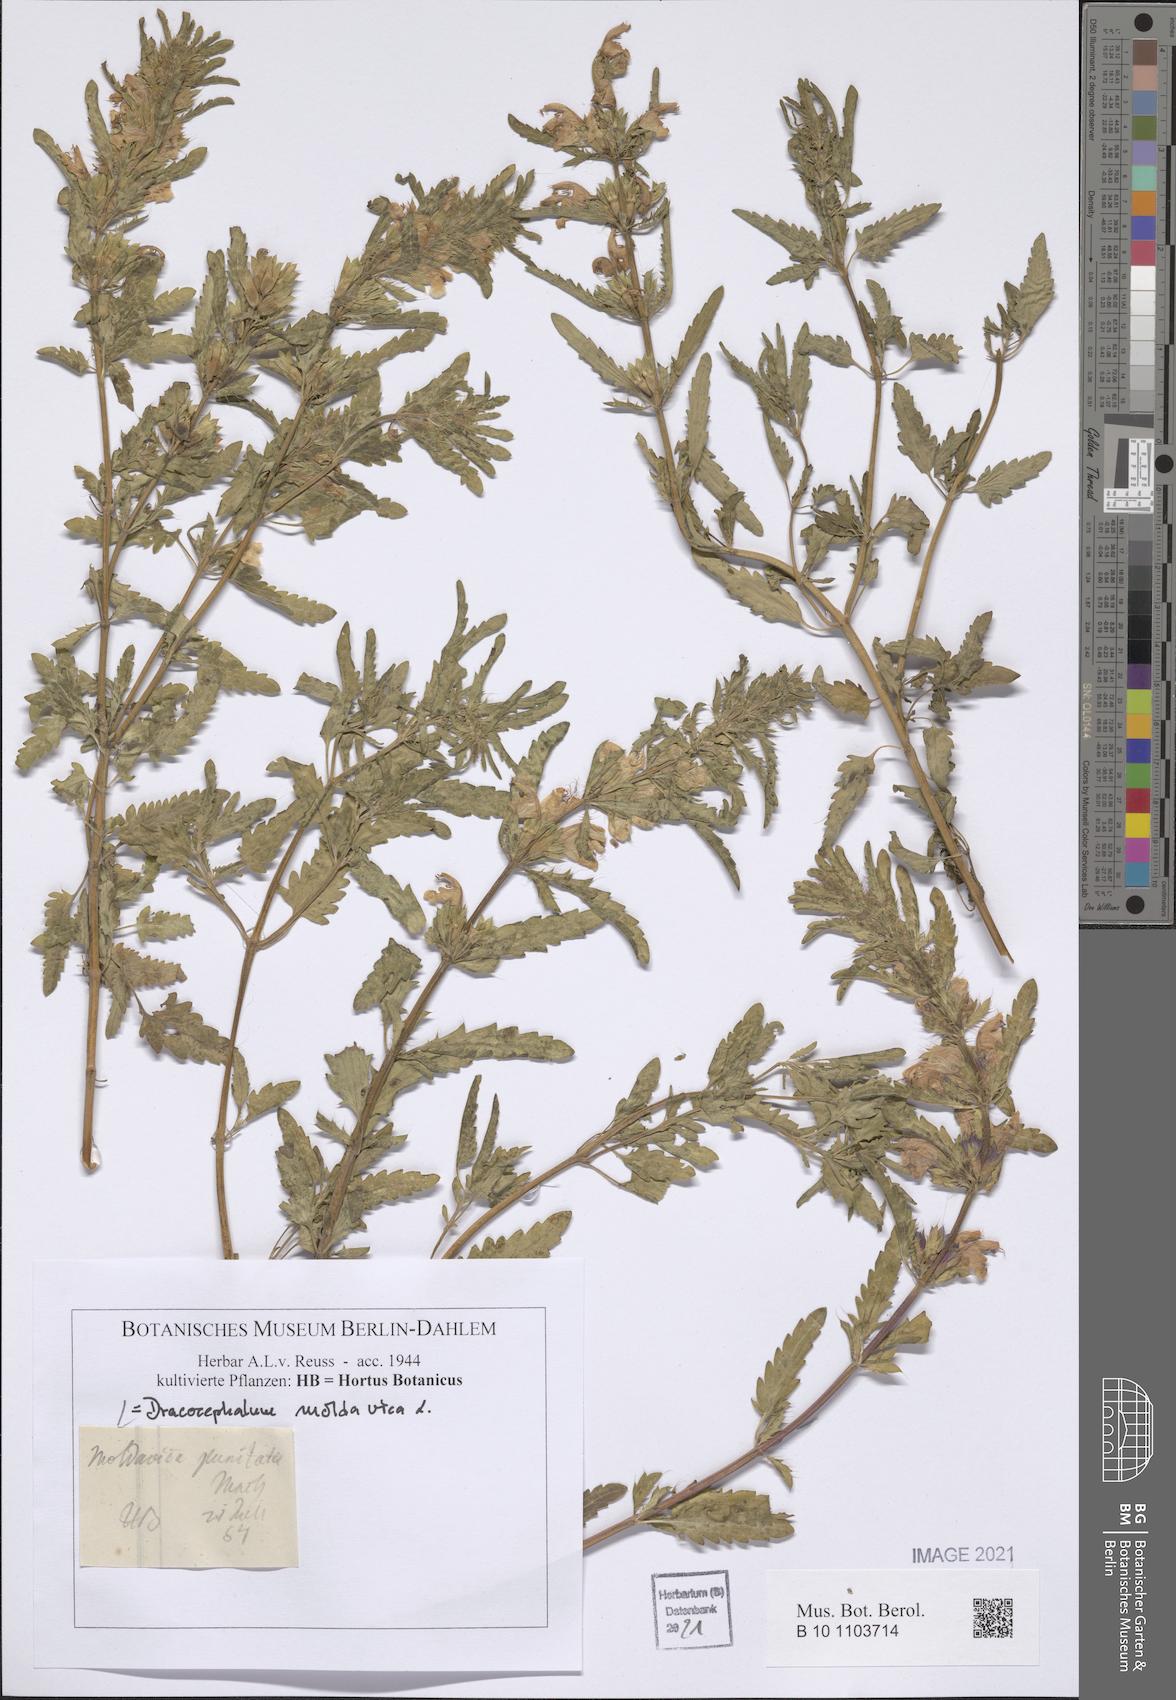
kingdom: Plantae
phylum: Tracheophyta
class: Magnoliopsida
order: Lamiales
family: Lamiaceae
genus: Dracocephalum
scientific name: Dracocephalum moldavica
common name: Moldavian dragonhead
